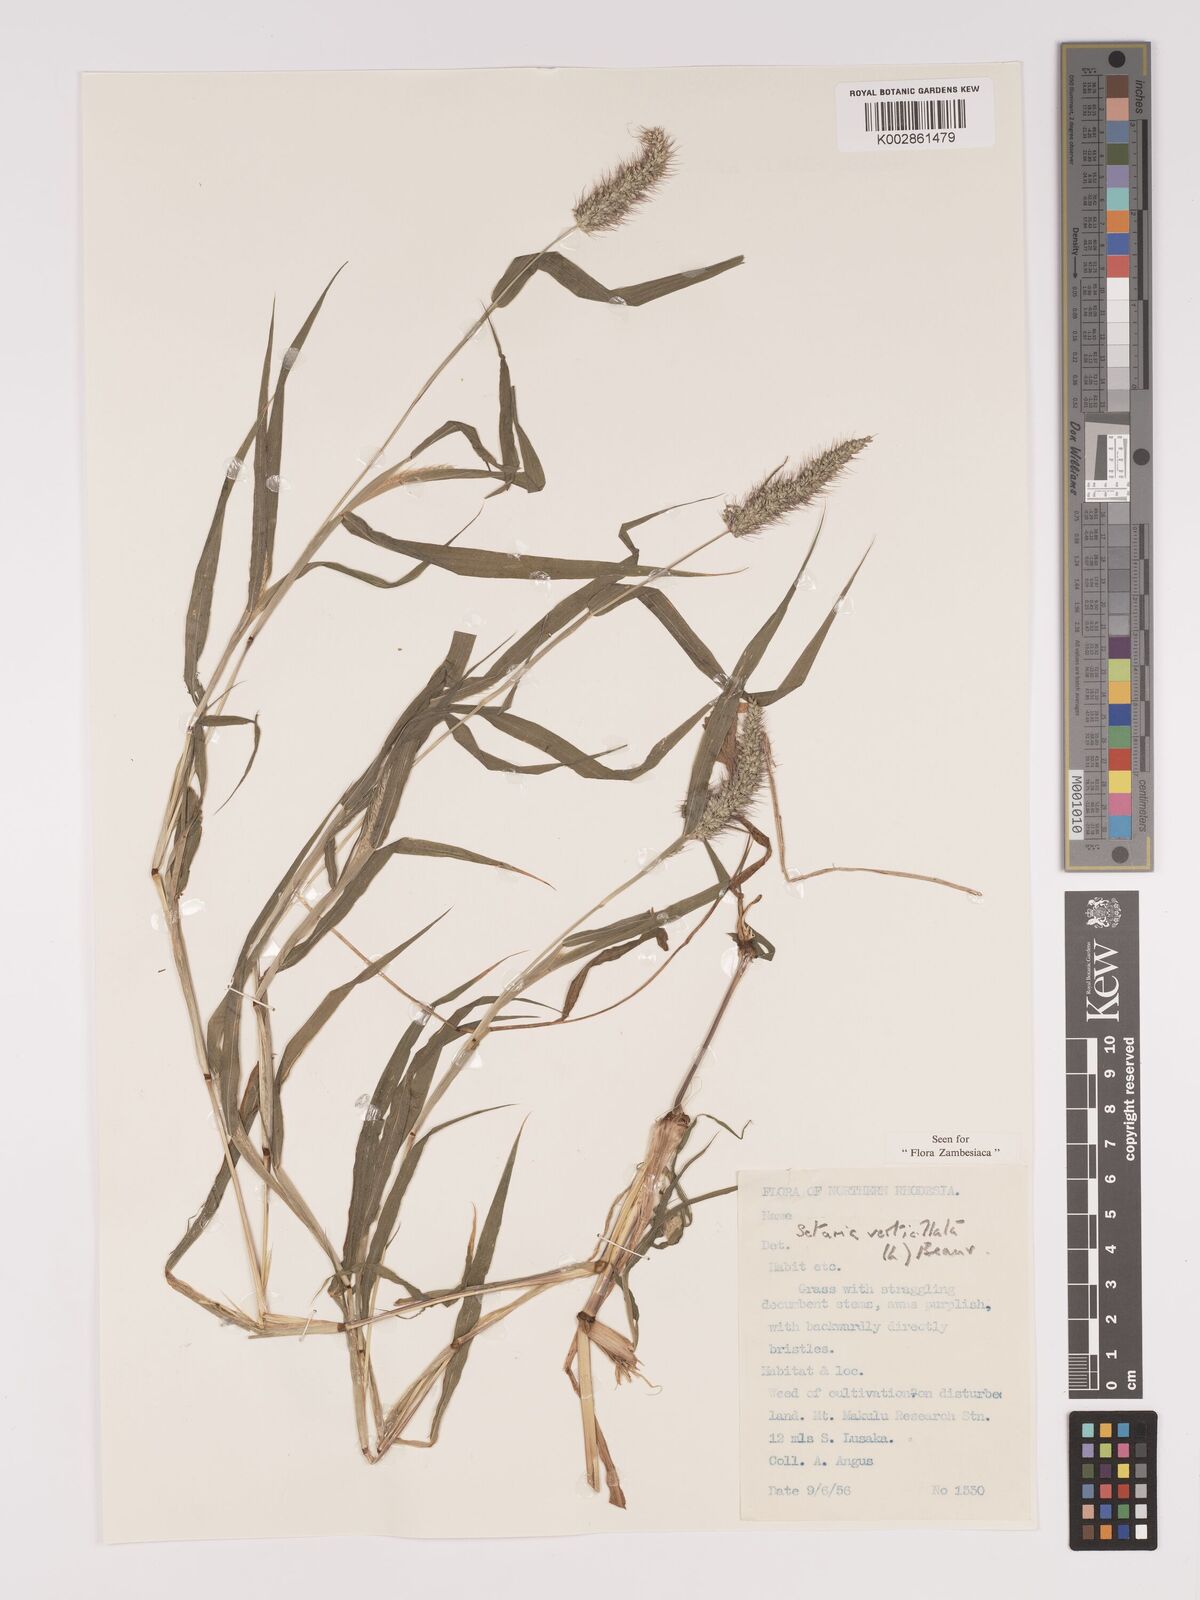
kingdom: Plantae
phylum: Tracheophyta
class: Liliopsida
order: Poales
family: Poaceae
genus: Setaria
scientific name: Setaria verticillata
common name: Hooked bristlegrass
